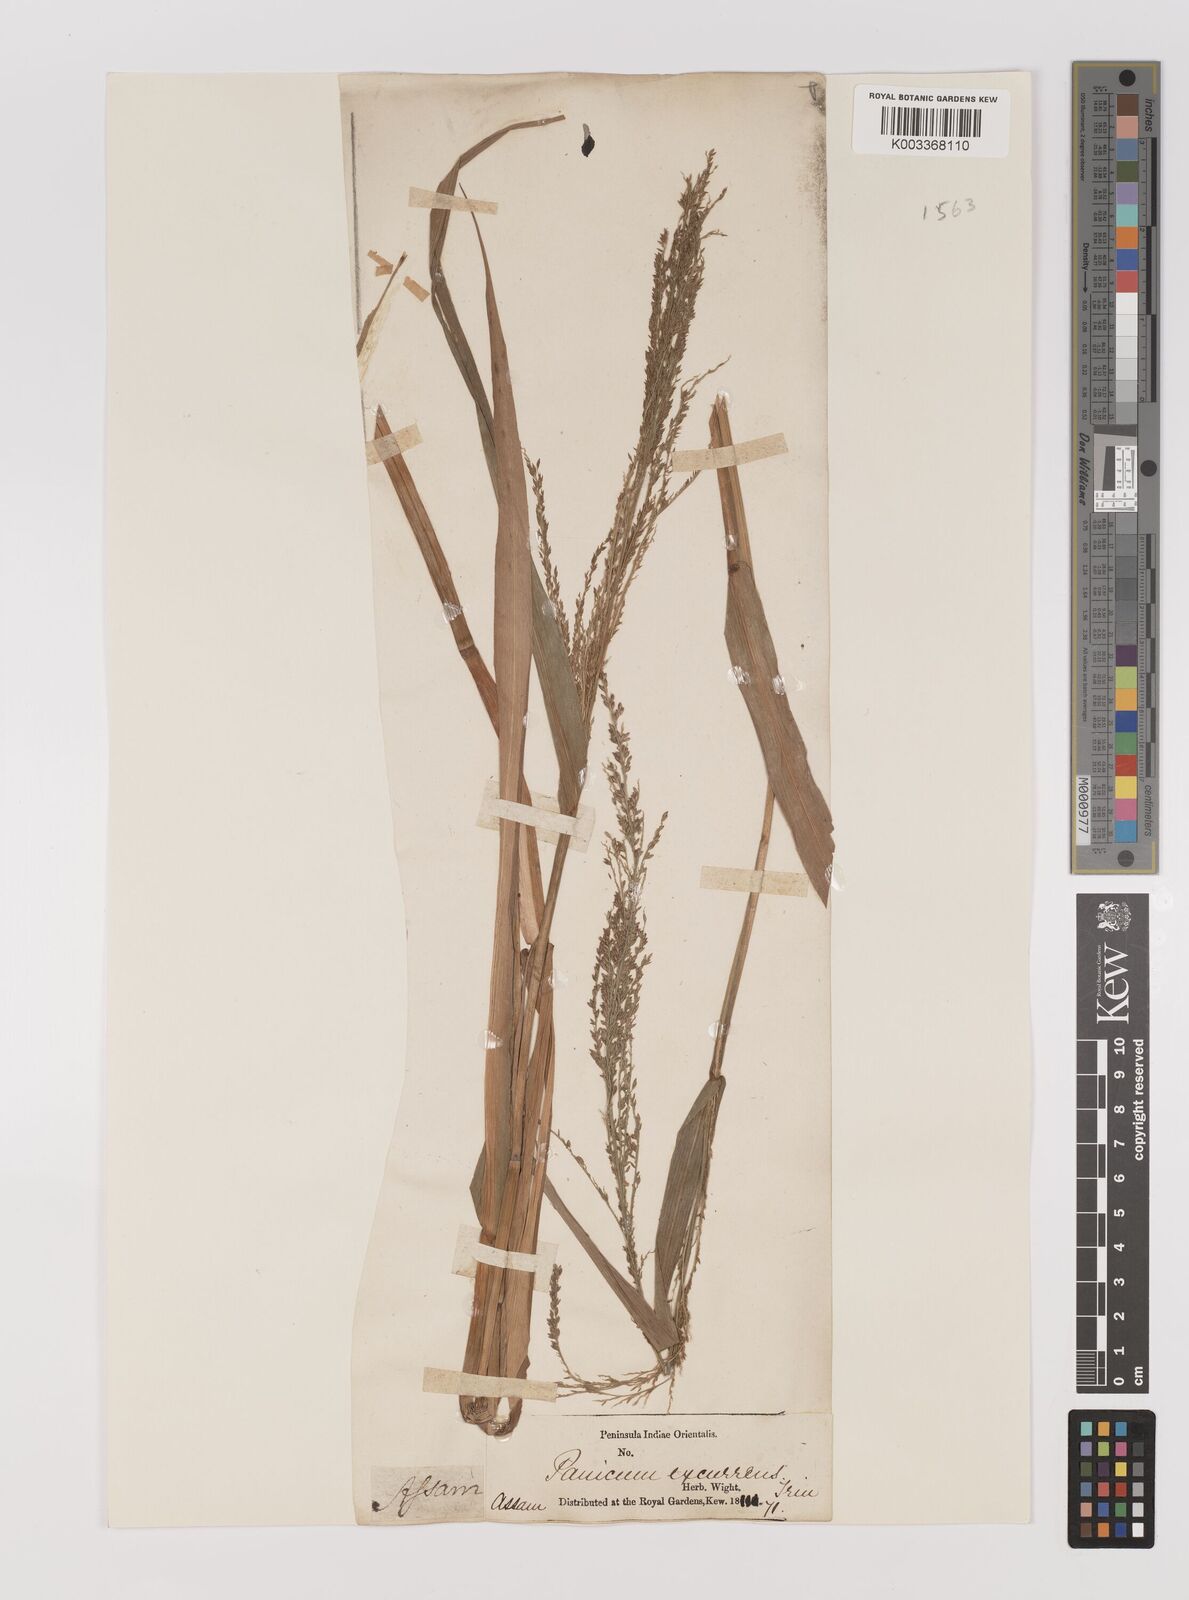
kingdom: Plantae
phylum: Tracheophyta
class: Liliopsida
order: Poales
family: Poaceae
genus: Hymenachne
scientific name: Hymenachne aurita
